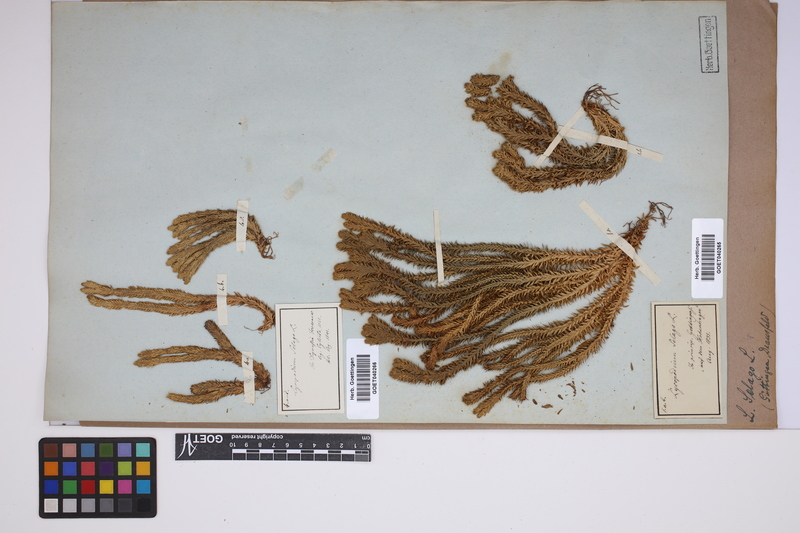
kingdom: Plantae
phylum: Tracheophyta
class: Lycopodiopsida
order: Lycopodiales
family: Lycopodiaceae
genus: Huperzia
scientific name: Huperzia selago
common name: Northern firmoss
